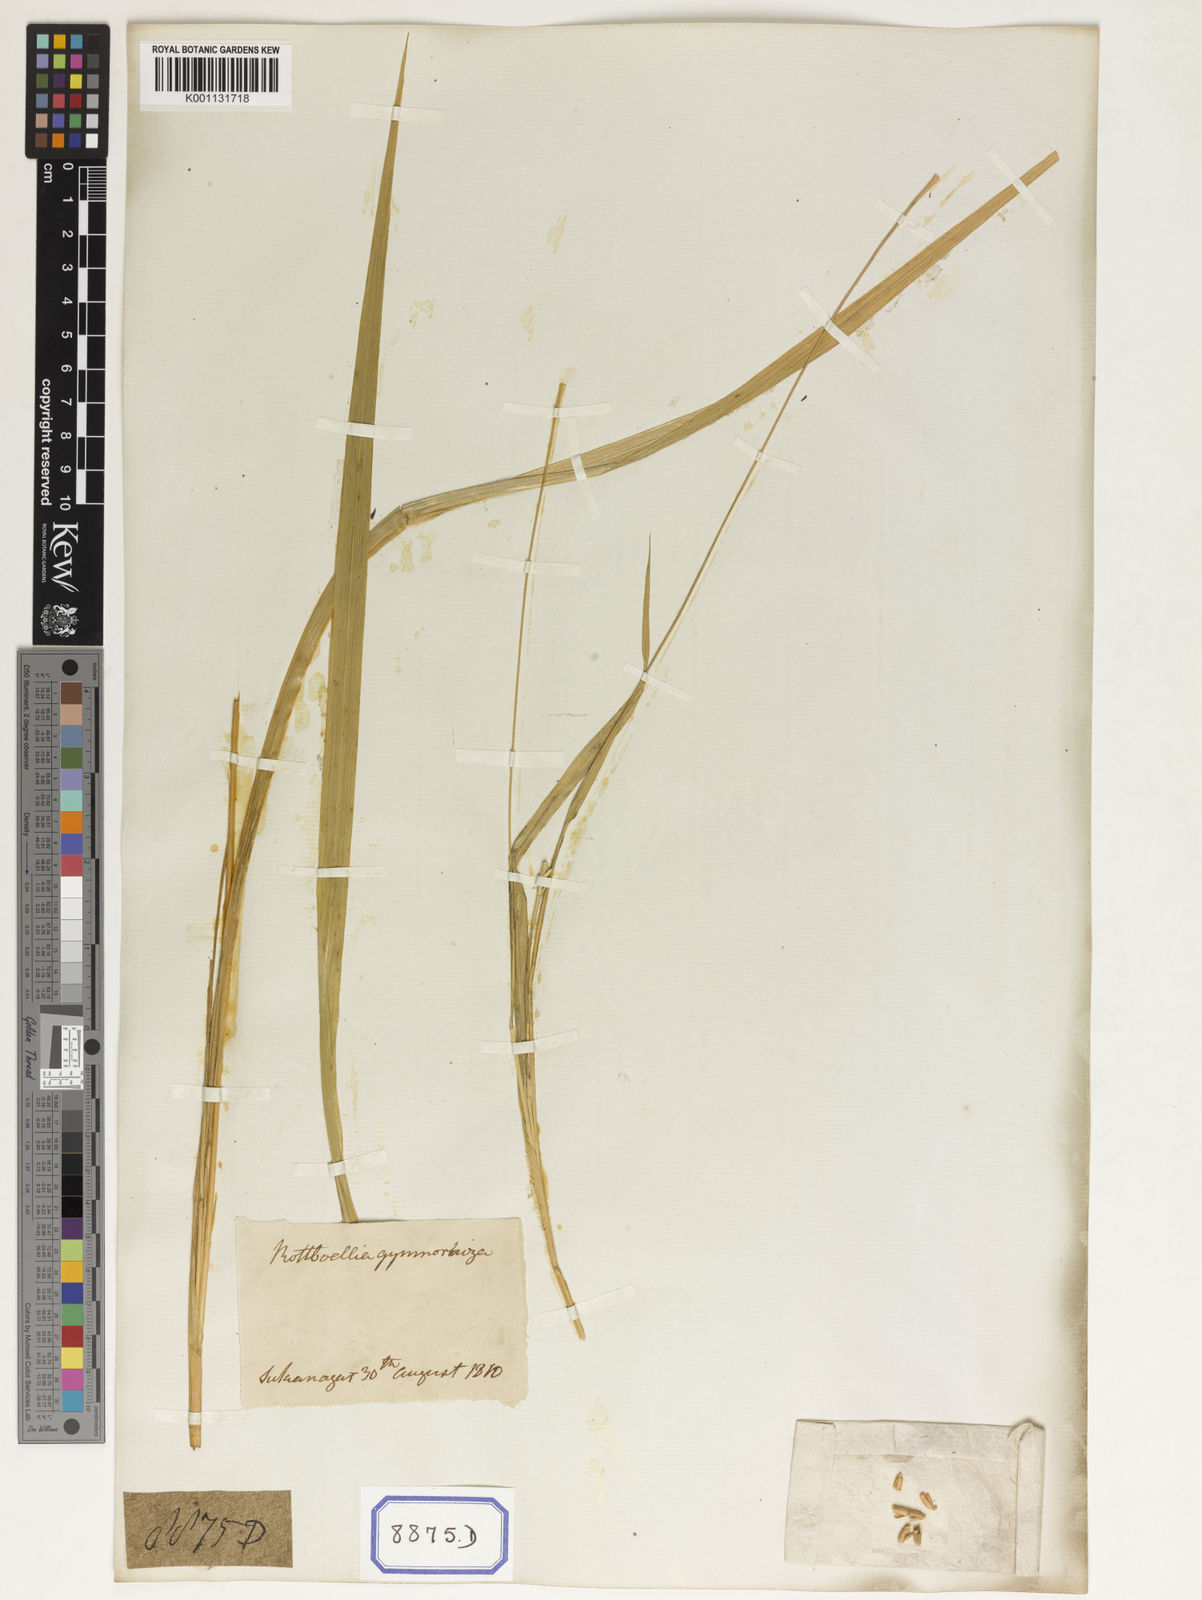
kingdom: Plantae
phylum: Tracheophyta
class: Liliopsida
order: Poales
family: Poaceae
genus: Ophiuros
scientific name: Ophiuros exaltatus
